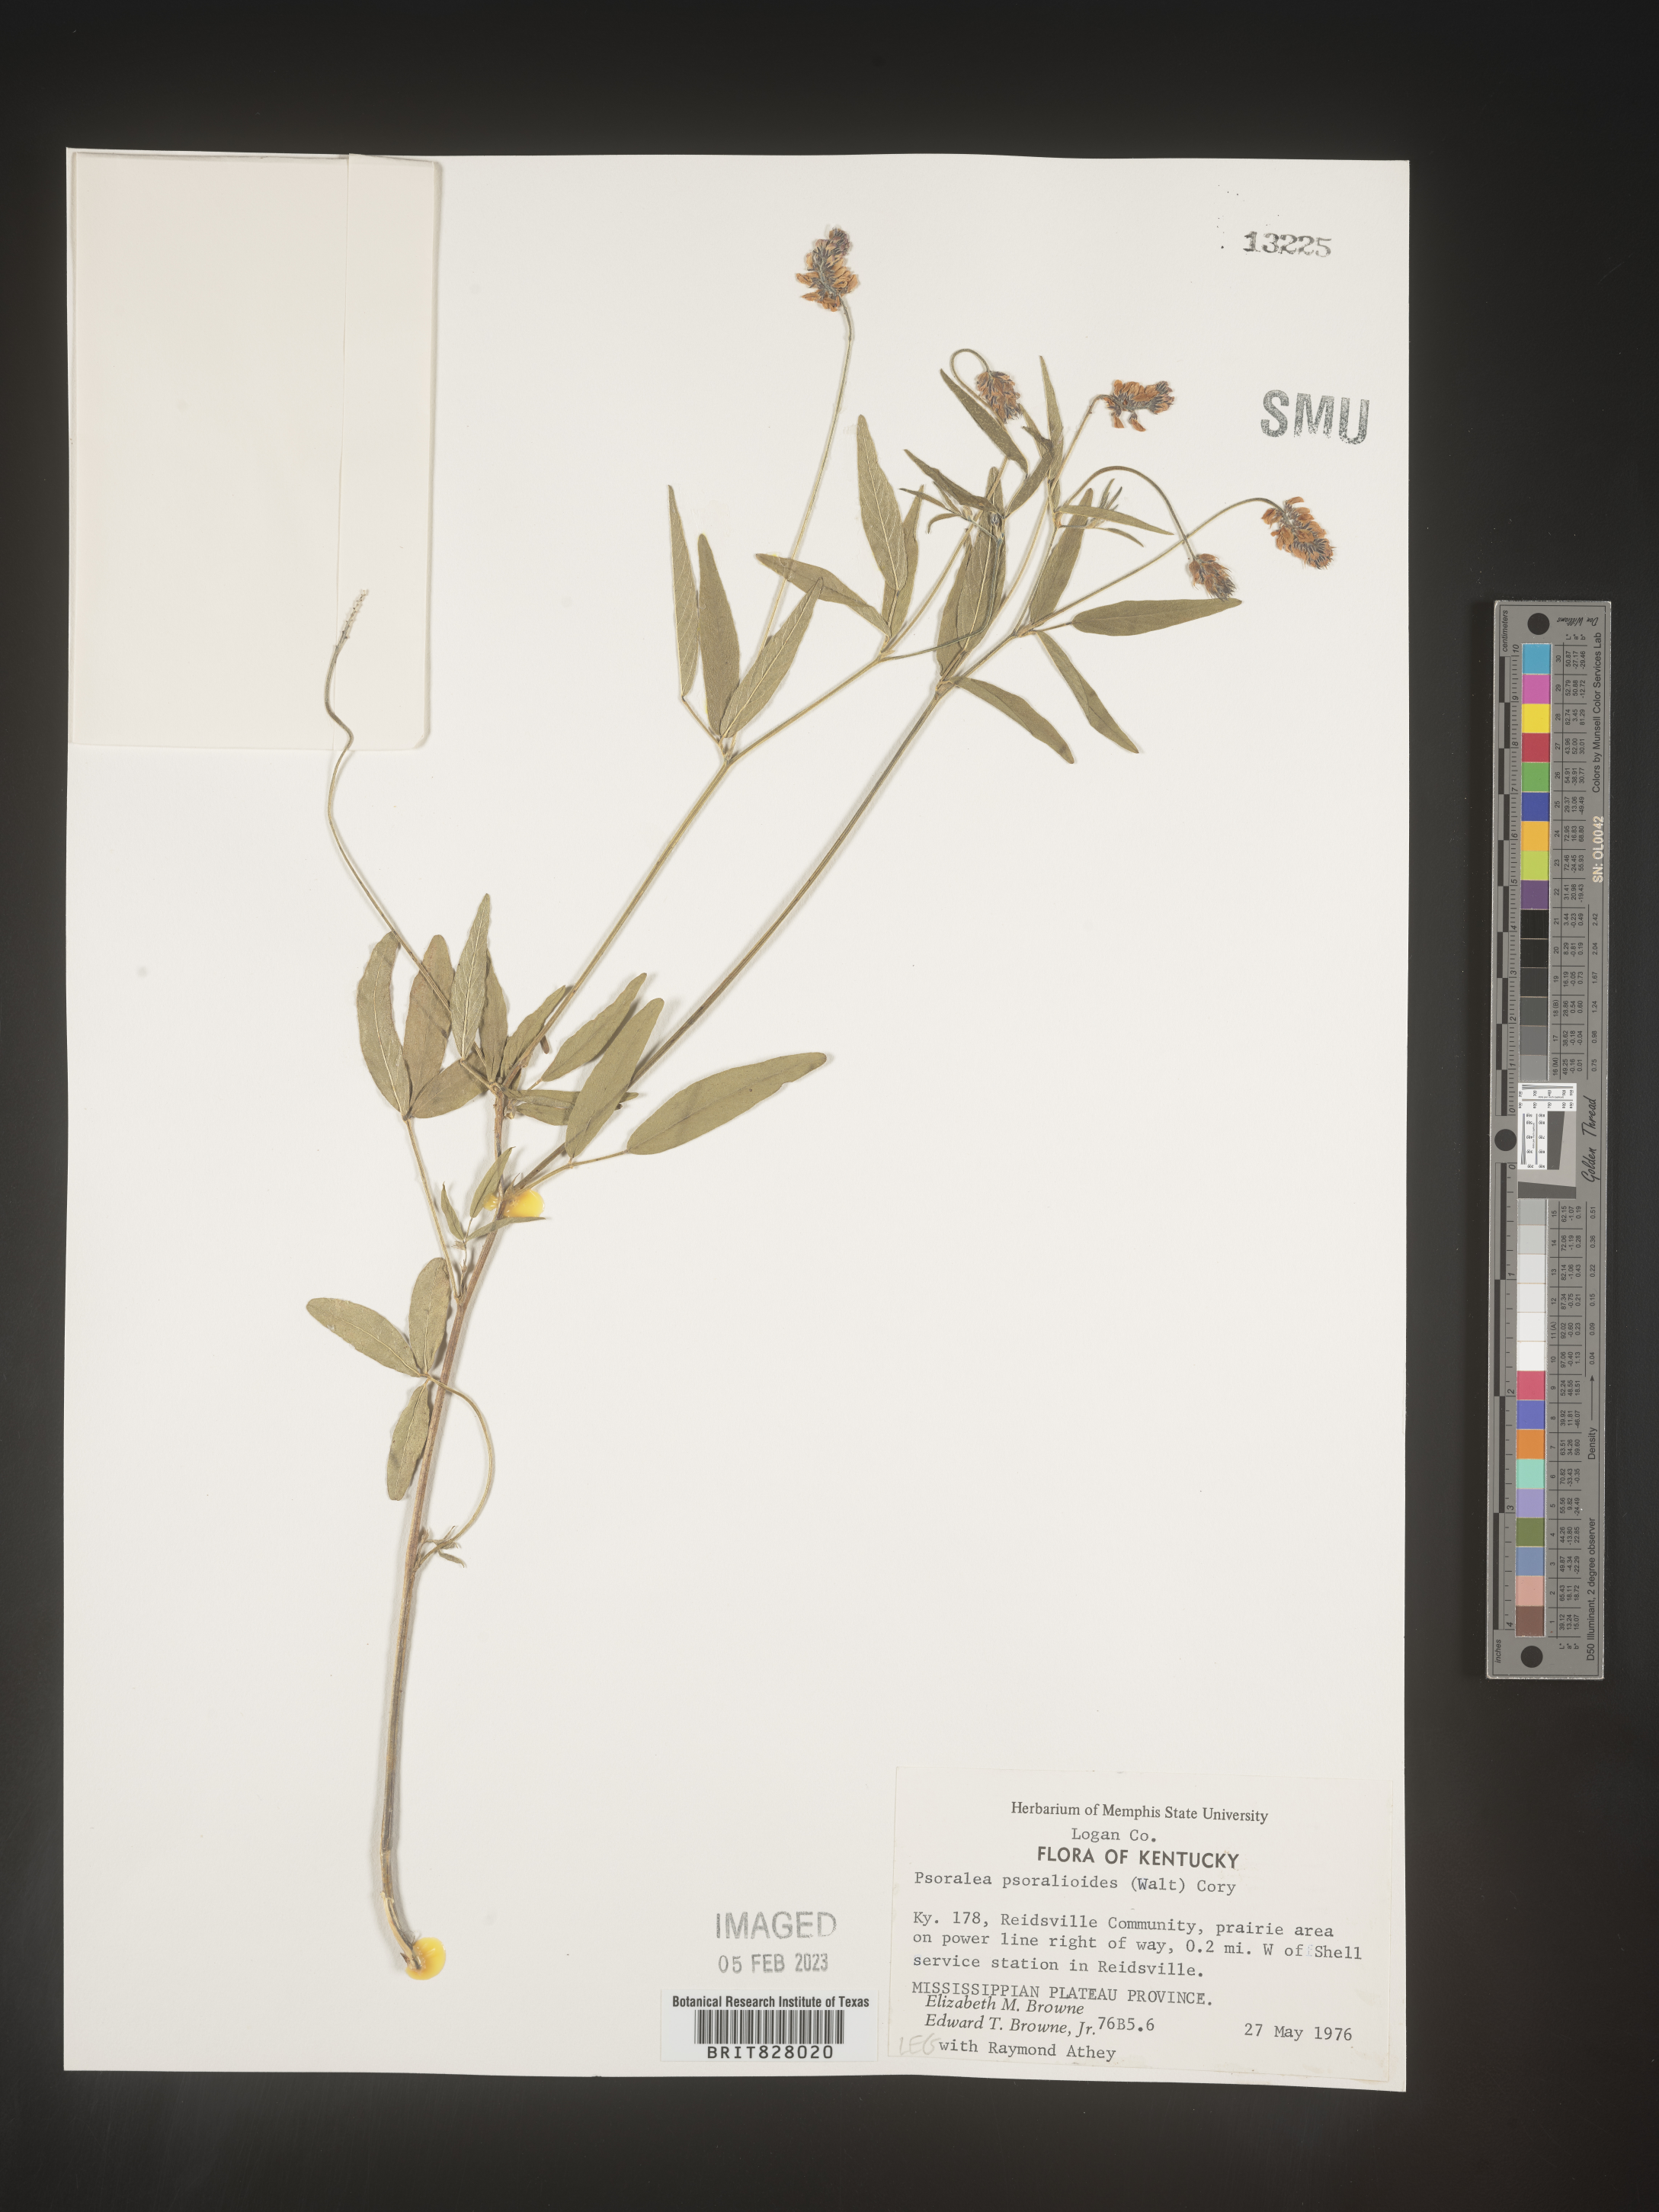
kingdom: Plantae
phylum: Tracheophyta
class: Magnoliopsida
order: Fabales
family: Fabaceae
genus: Orbexilum
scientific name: Orbexilum pedunculatum
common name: Sampson's snakeroot
